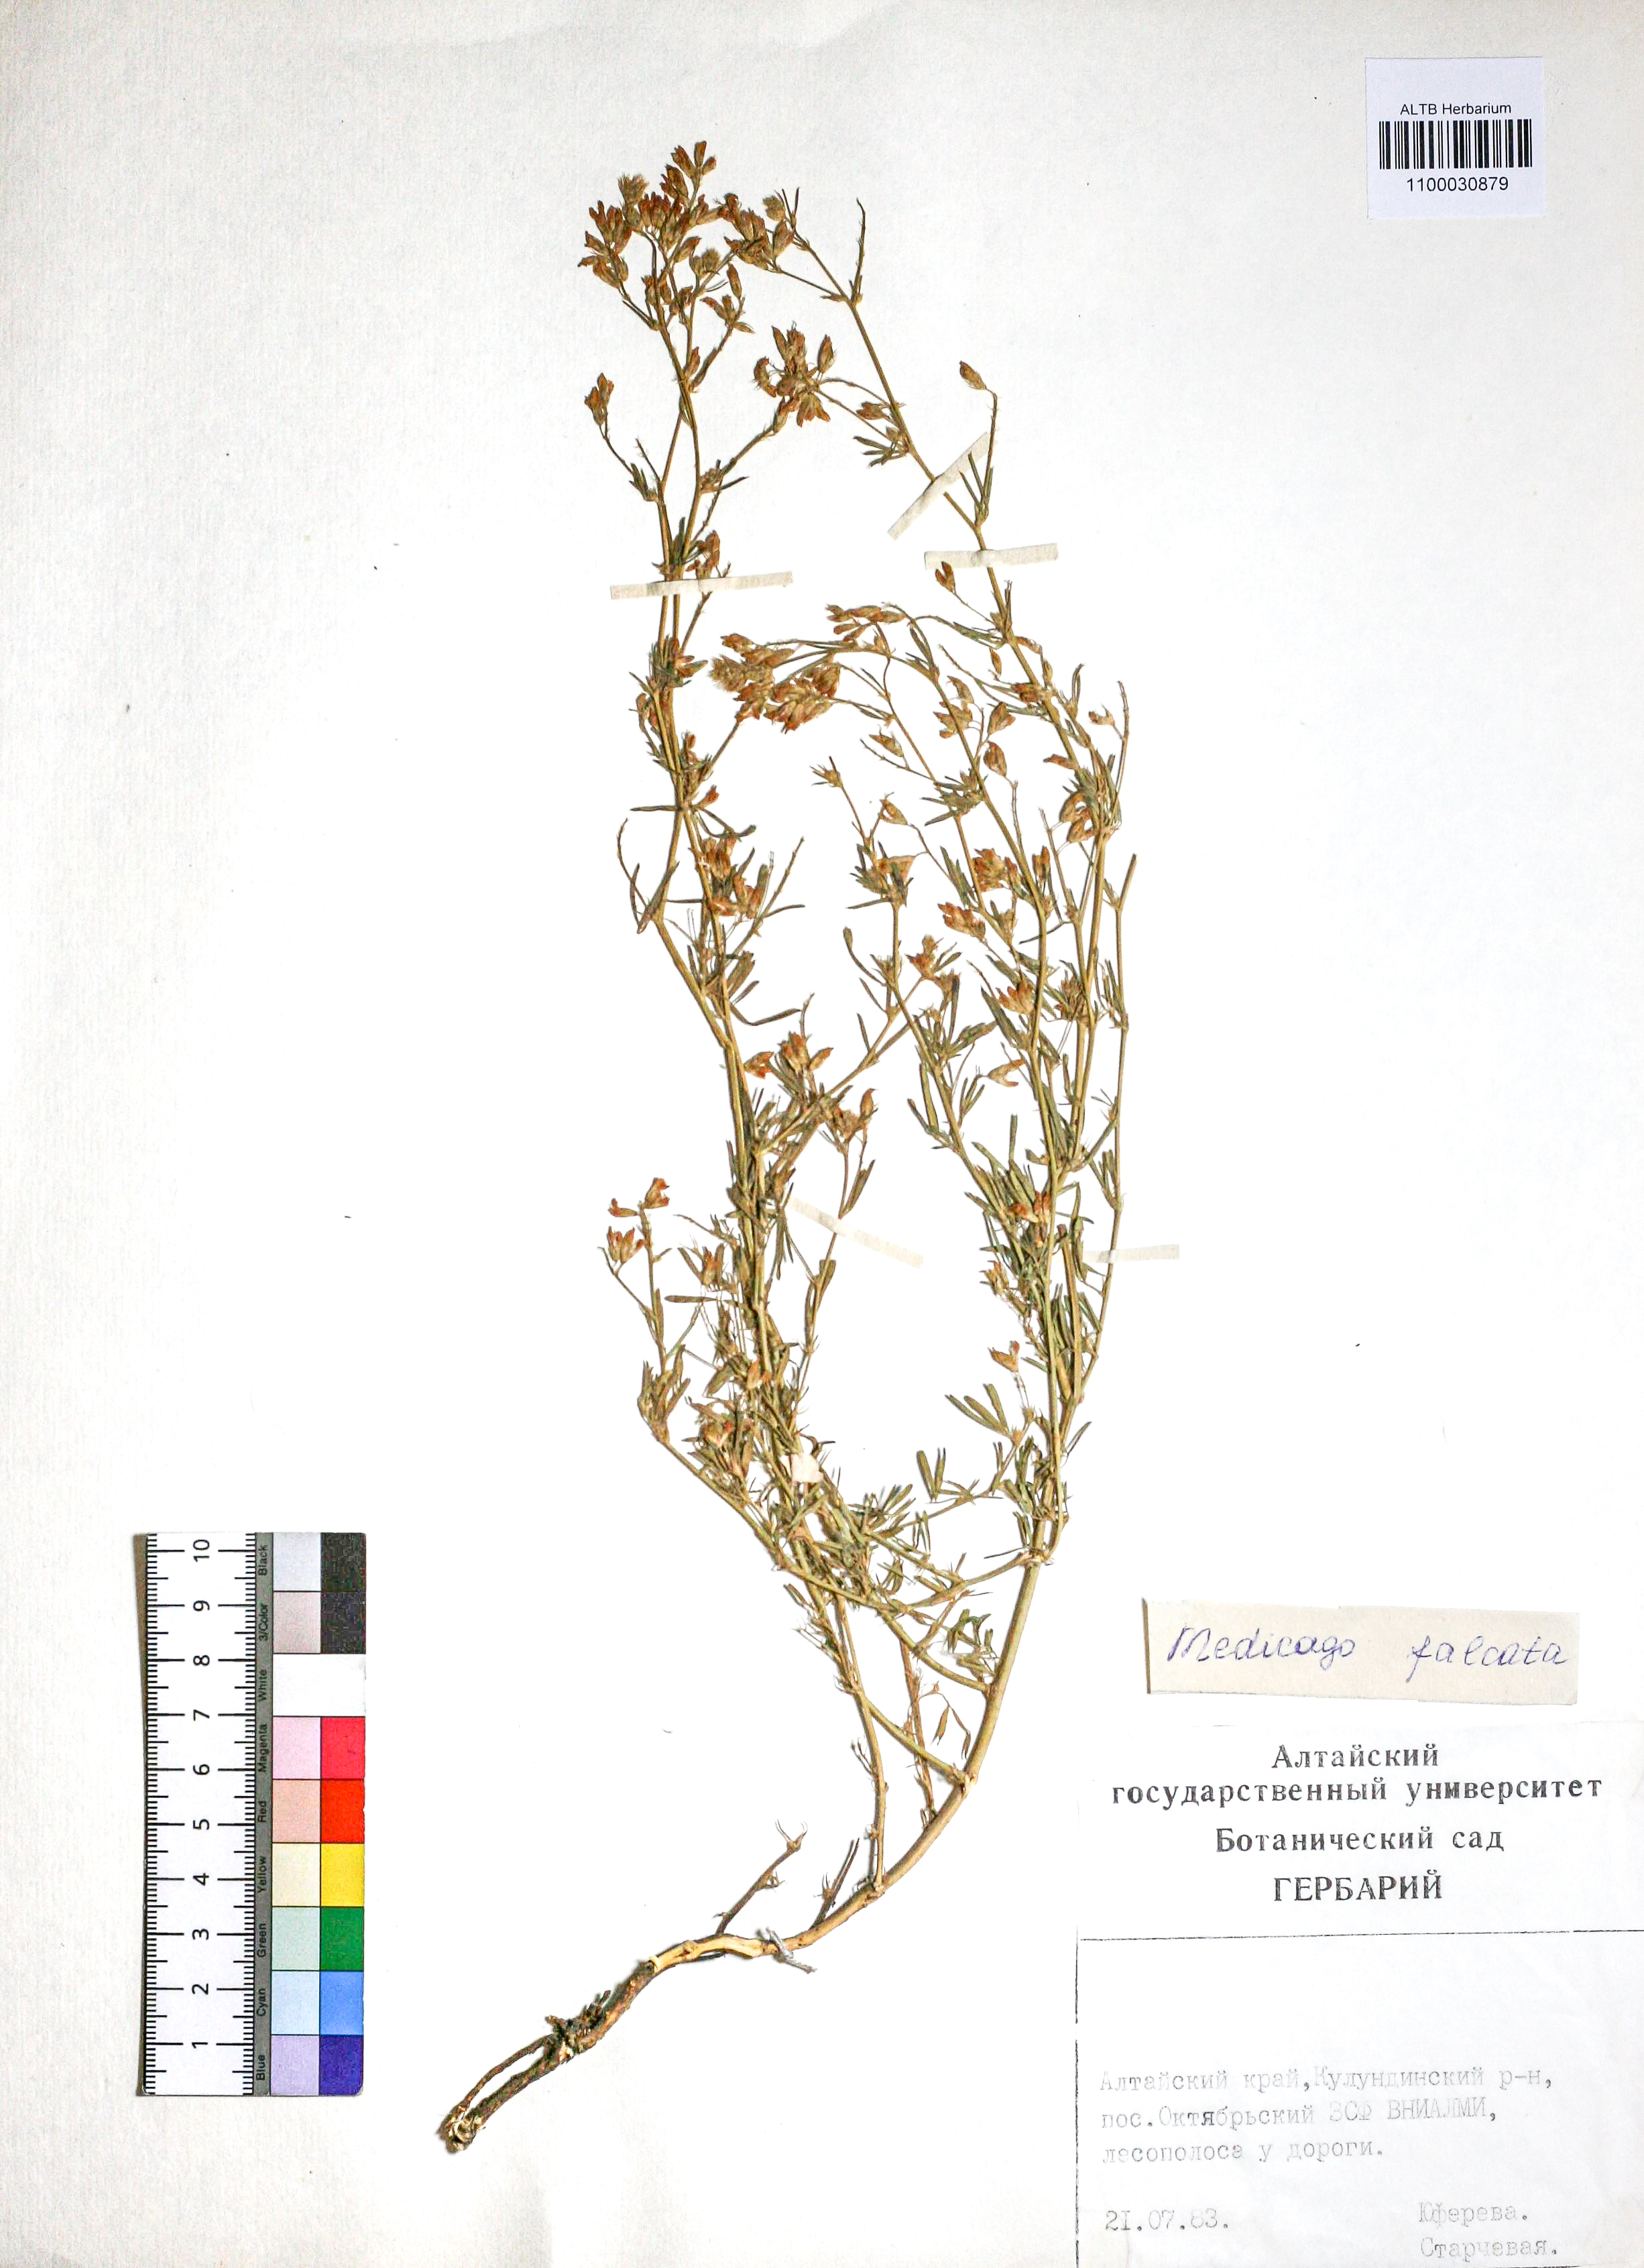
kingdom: Plantae
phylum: Tracheophyta
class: Magnoliopsida
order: Fabales
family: Fabaceae
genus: Medicago
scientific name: Medicago falcata
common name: Sickle medick
